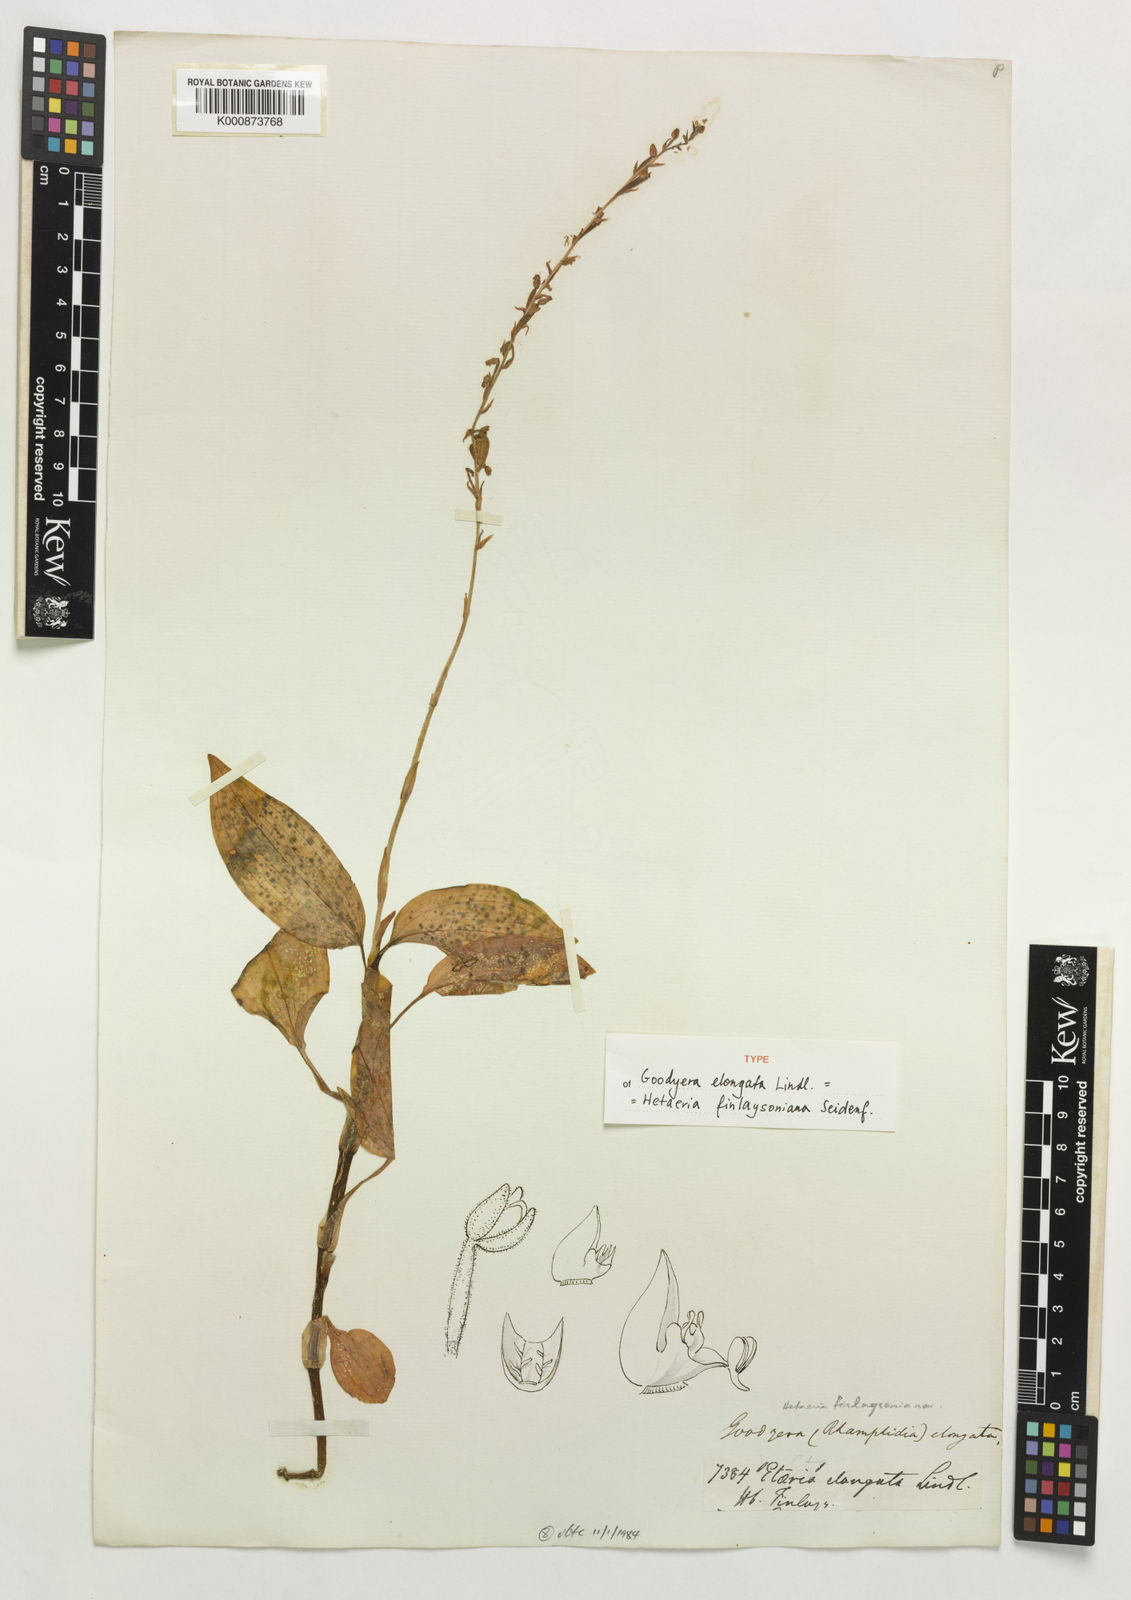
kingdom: Plantae
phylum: Tracheophyta
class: Liliopsida
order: Asparagales
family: Orchidaceae
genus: Hetaeria
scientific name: Hetaeria finlaysoniana
